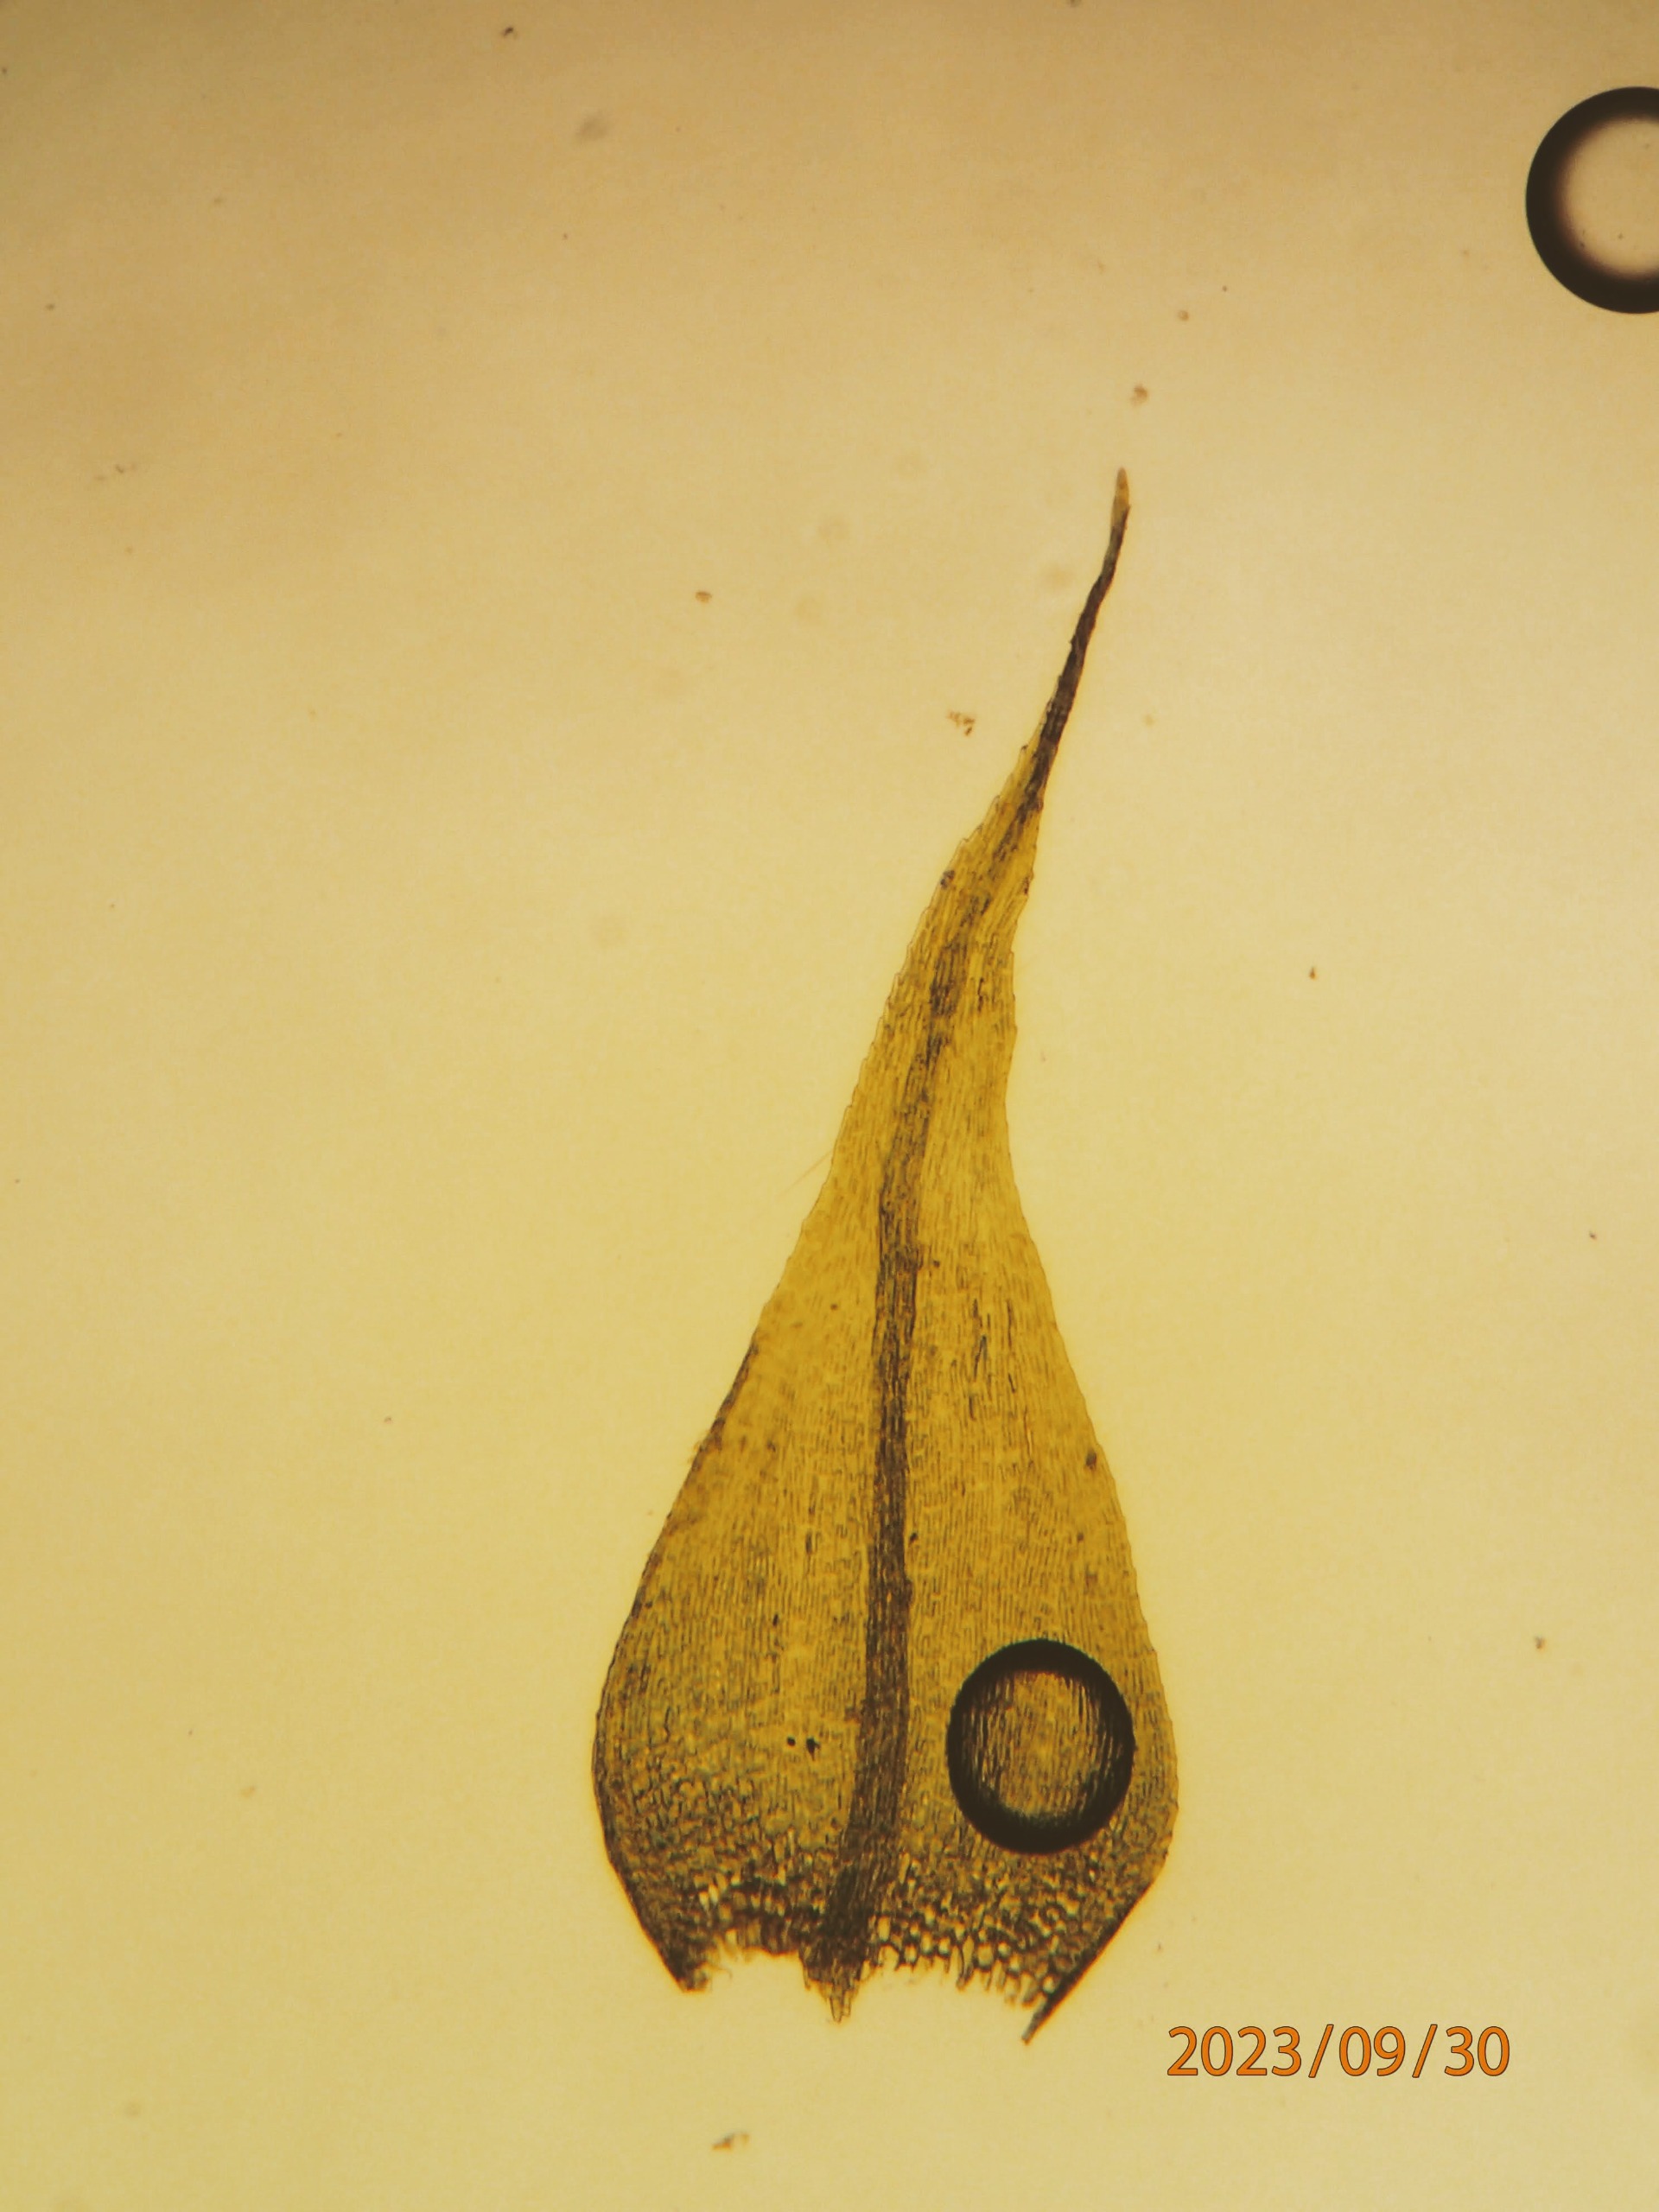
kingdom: Plantae
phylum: Bryophyta
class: Bryopsida
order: Hypnales
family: Brachytheciaceae
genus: Sciuro-hypnum
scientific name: Sciuro-hypnum populeum
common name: Park-kortkapsel
